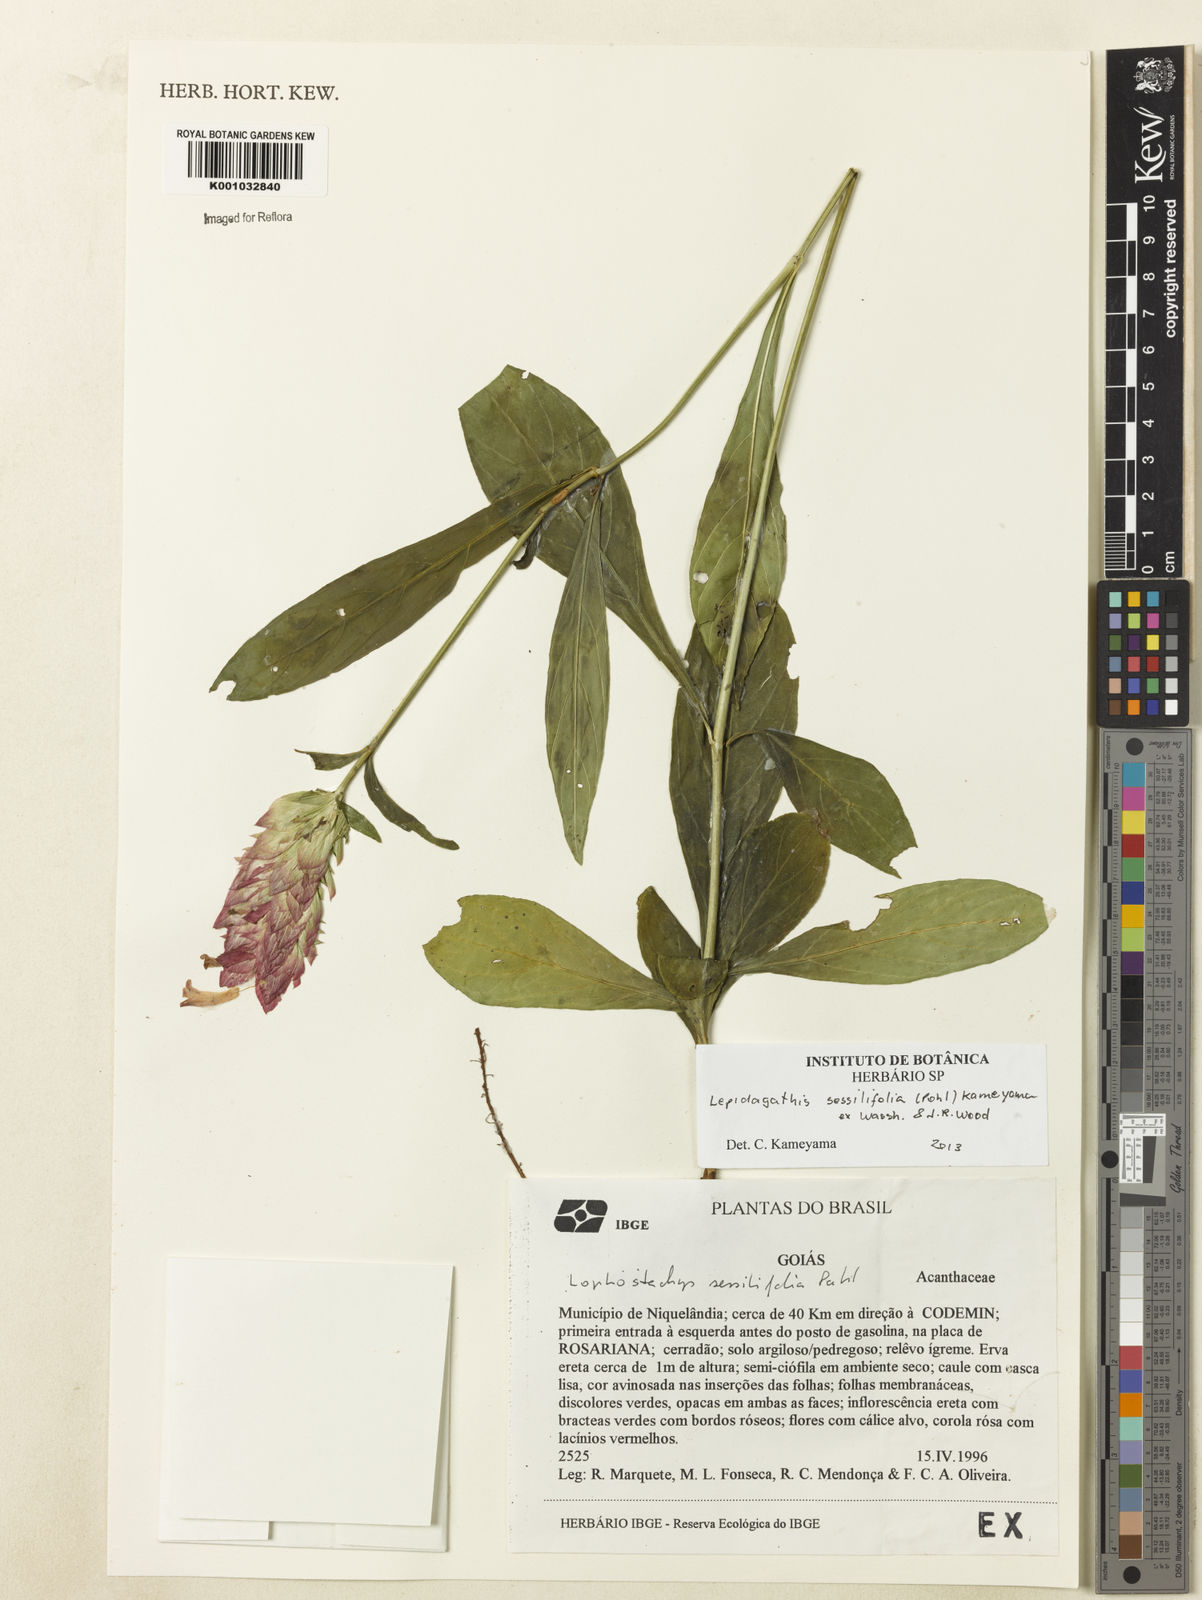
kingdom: Plantae
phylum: Tracheophyta
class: Magnoliopsida
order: Lamiales
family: Acanthaceae
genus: Lepidagathis
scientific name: Lepidagathis sessilifolia
